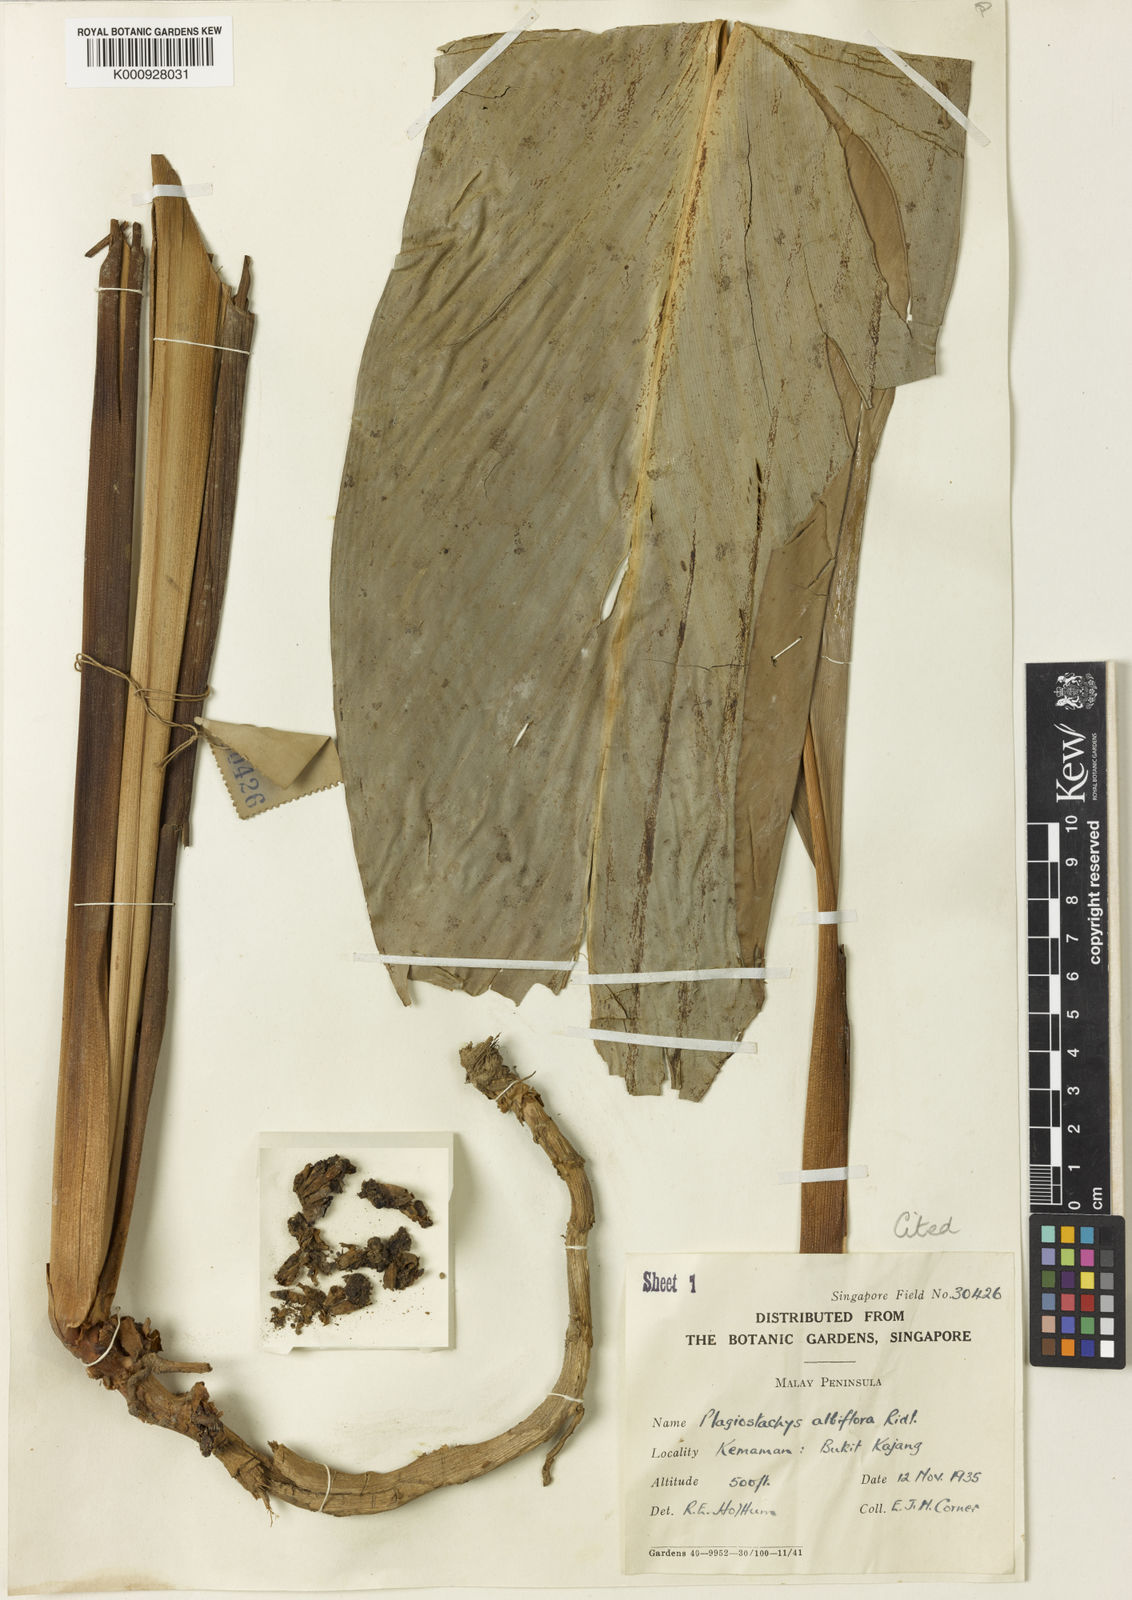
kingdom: Plantae
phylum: Tracheophyta
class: Liliopsida
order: Zingiberales
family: Zingiberaceae
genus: Plagiostachys
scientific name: Plagiostachys albiflora
